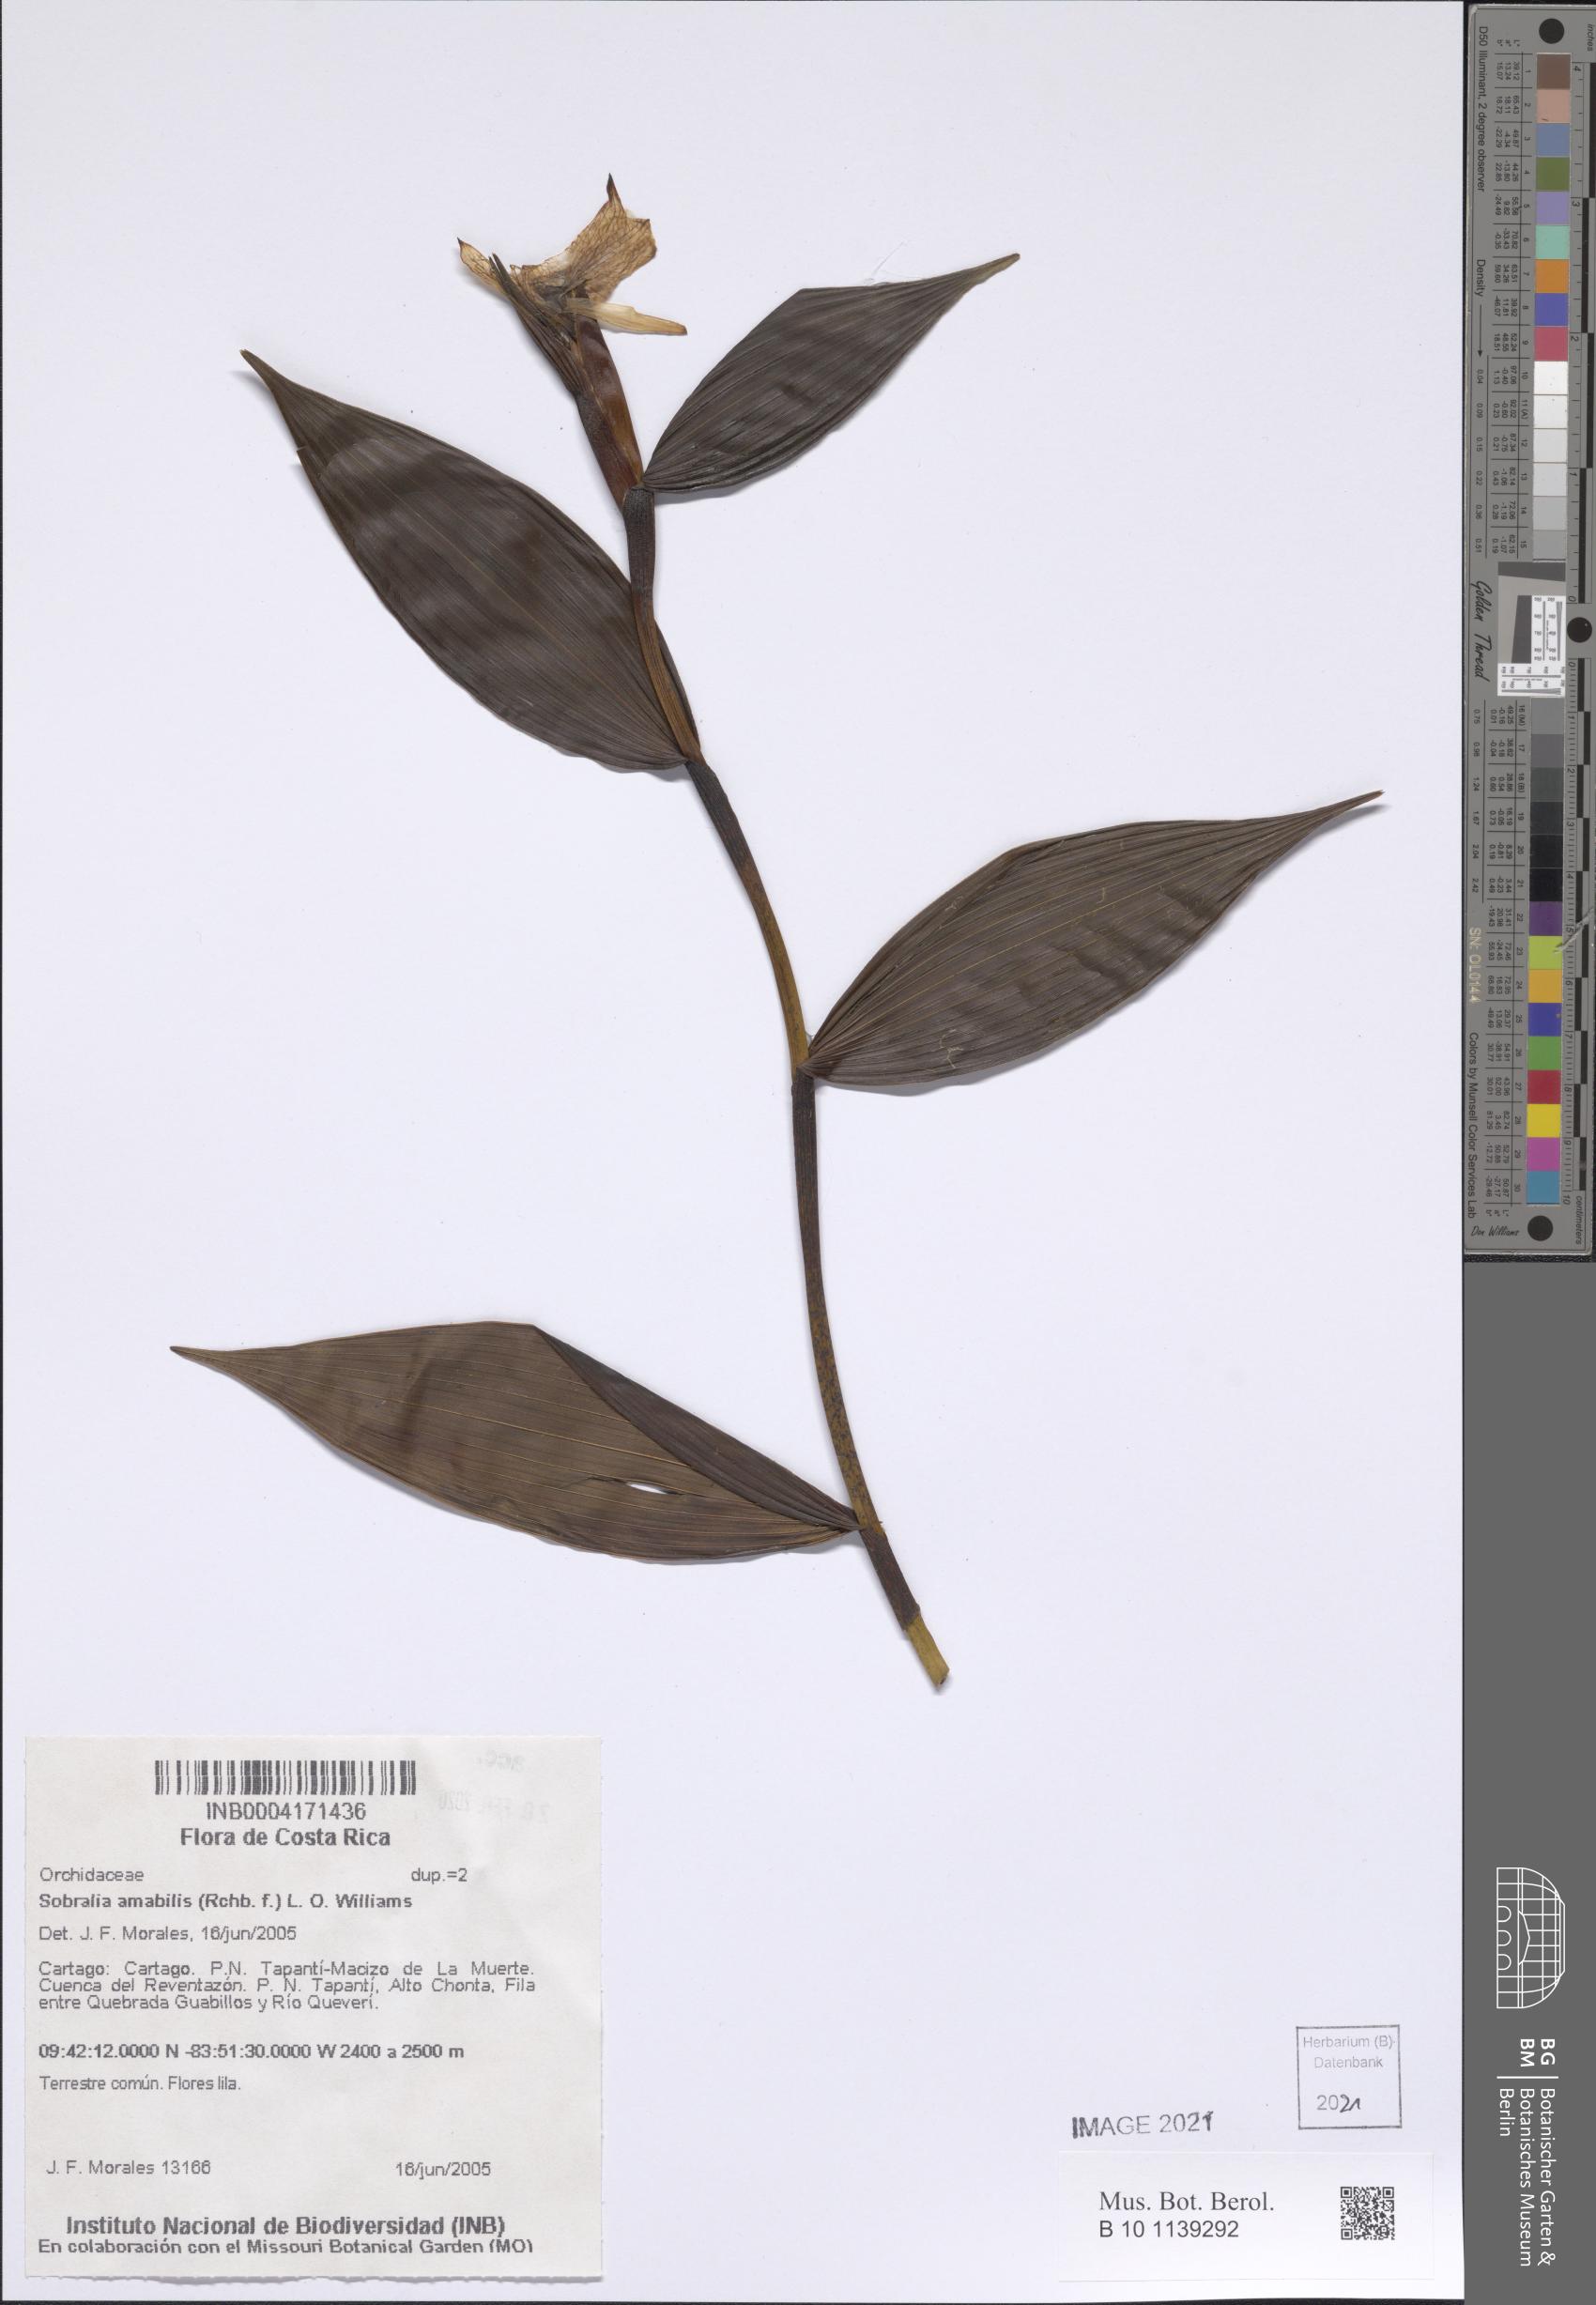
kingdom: Plantae
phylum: Tracheophyta
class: Liliopsida
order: Asparagales
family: Orchidaceae
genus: Sobralia
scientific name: Sobralia amabilis
